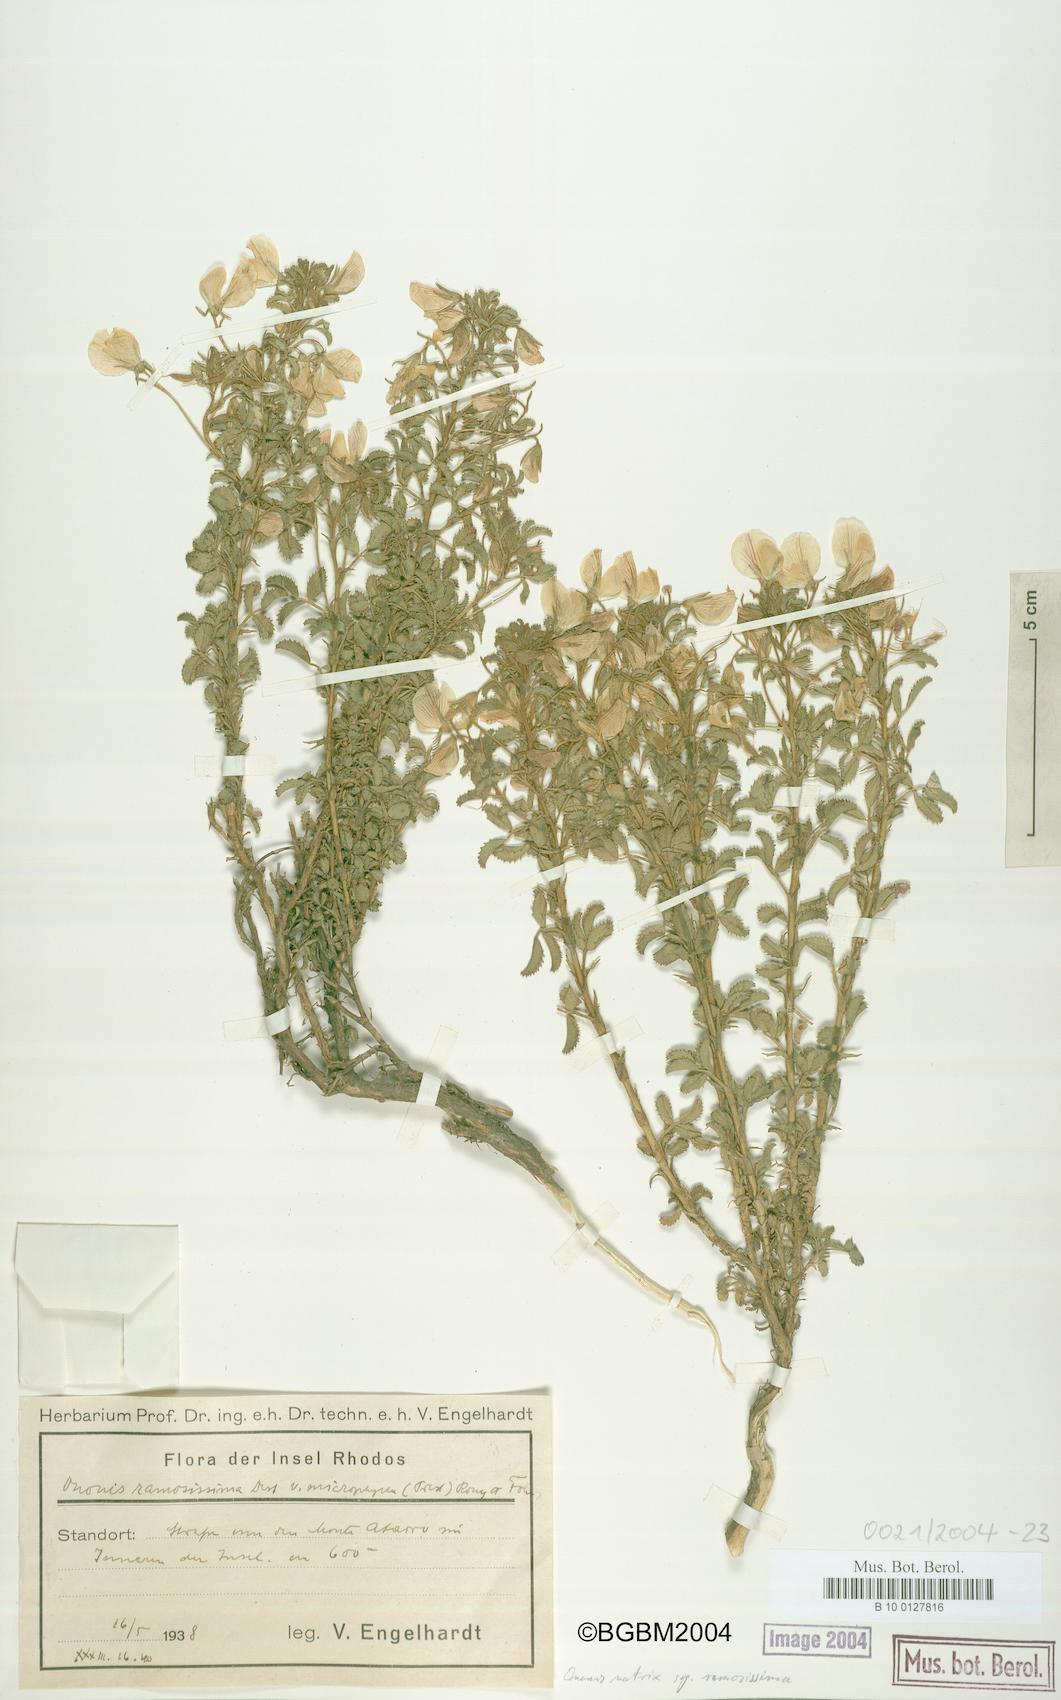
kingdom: Plantae
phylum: Tracheophyta
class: Magnoliopsida
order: Fabales
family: Fabaceae
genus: Ononis
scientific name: Ononis natrix
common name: Yellow restharrow
